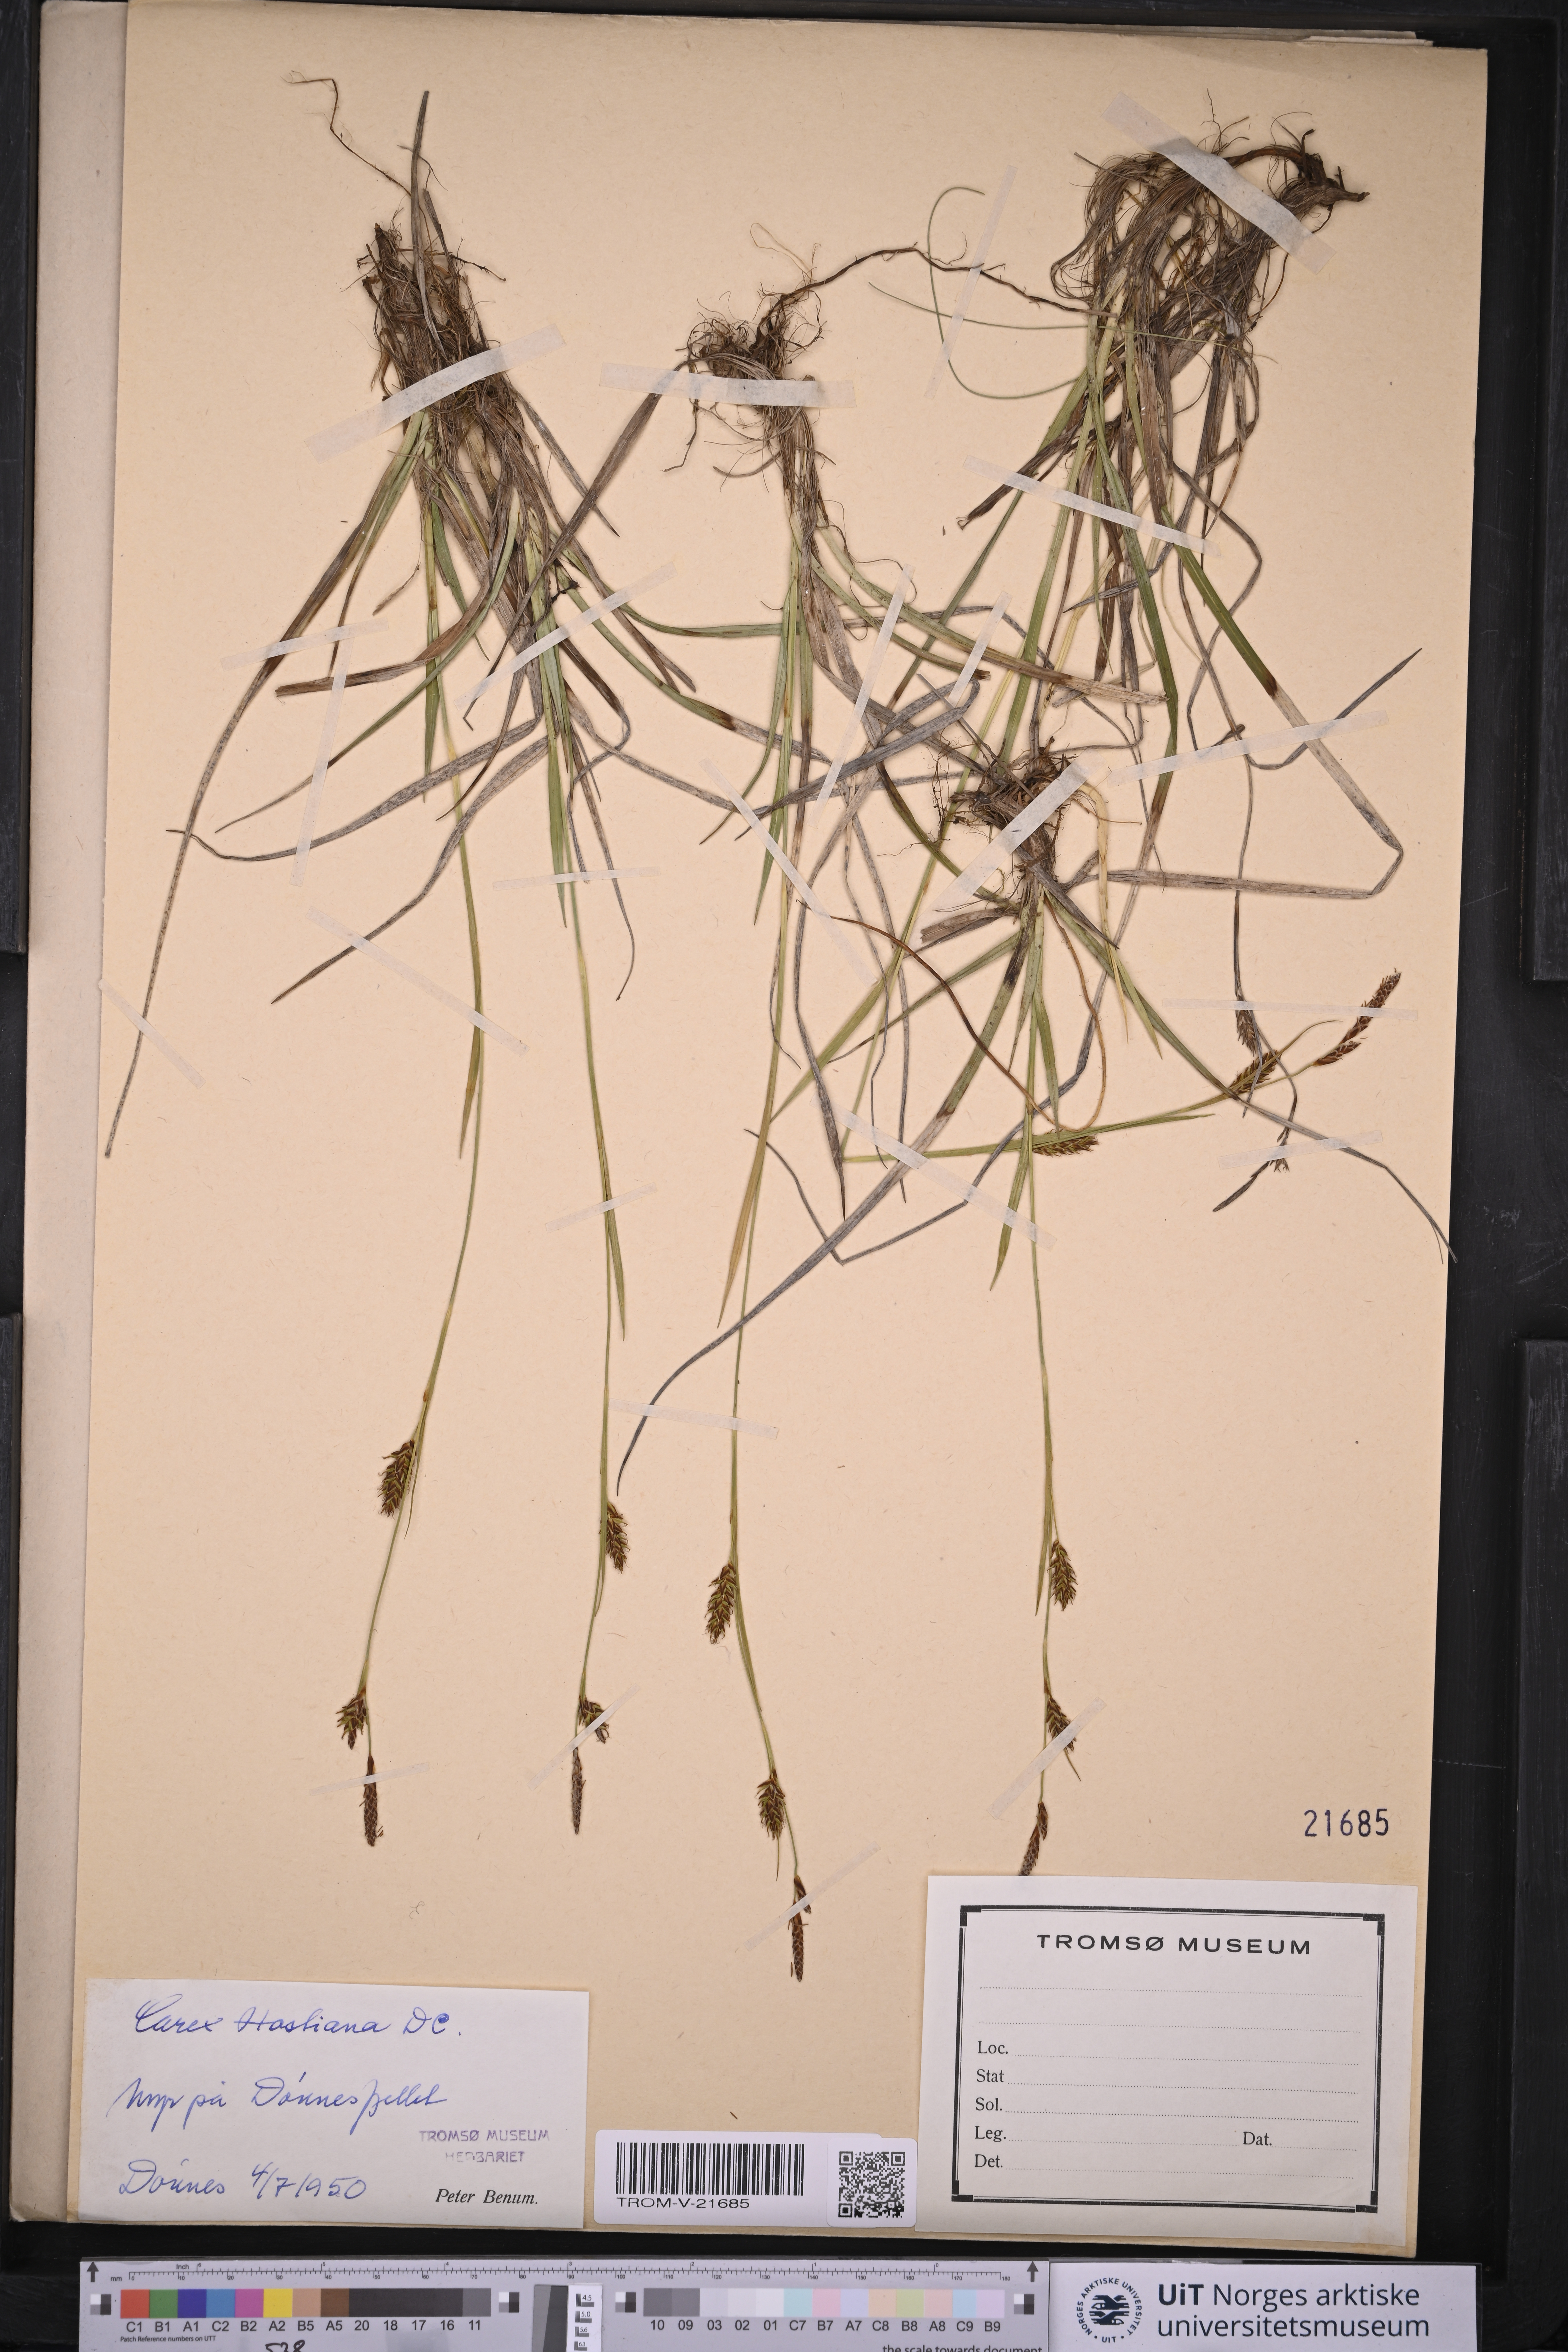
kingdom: Plantae
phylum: Tracheophyta
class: Liliopsida
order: Poales
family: Cyperaceae
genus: Carex
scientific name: Carex hostiana
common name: Tawny sedge
